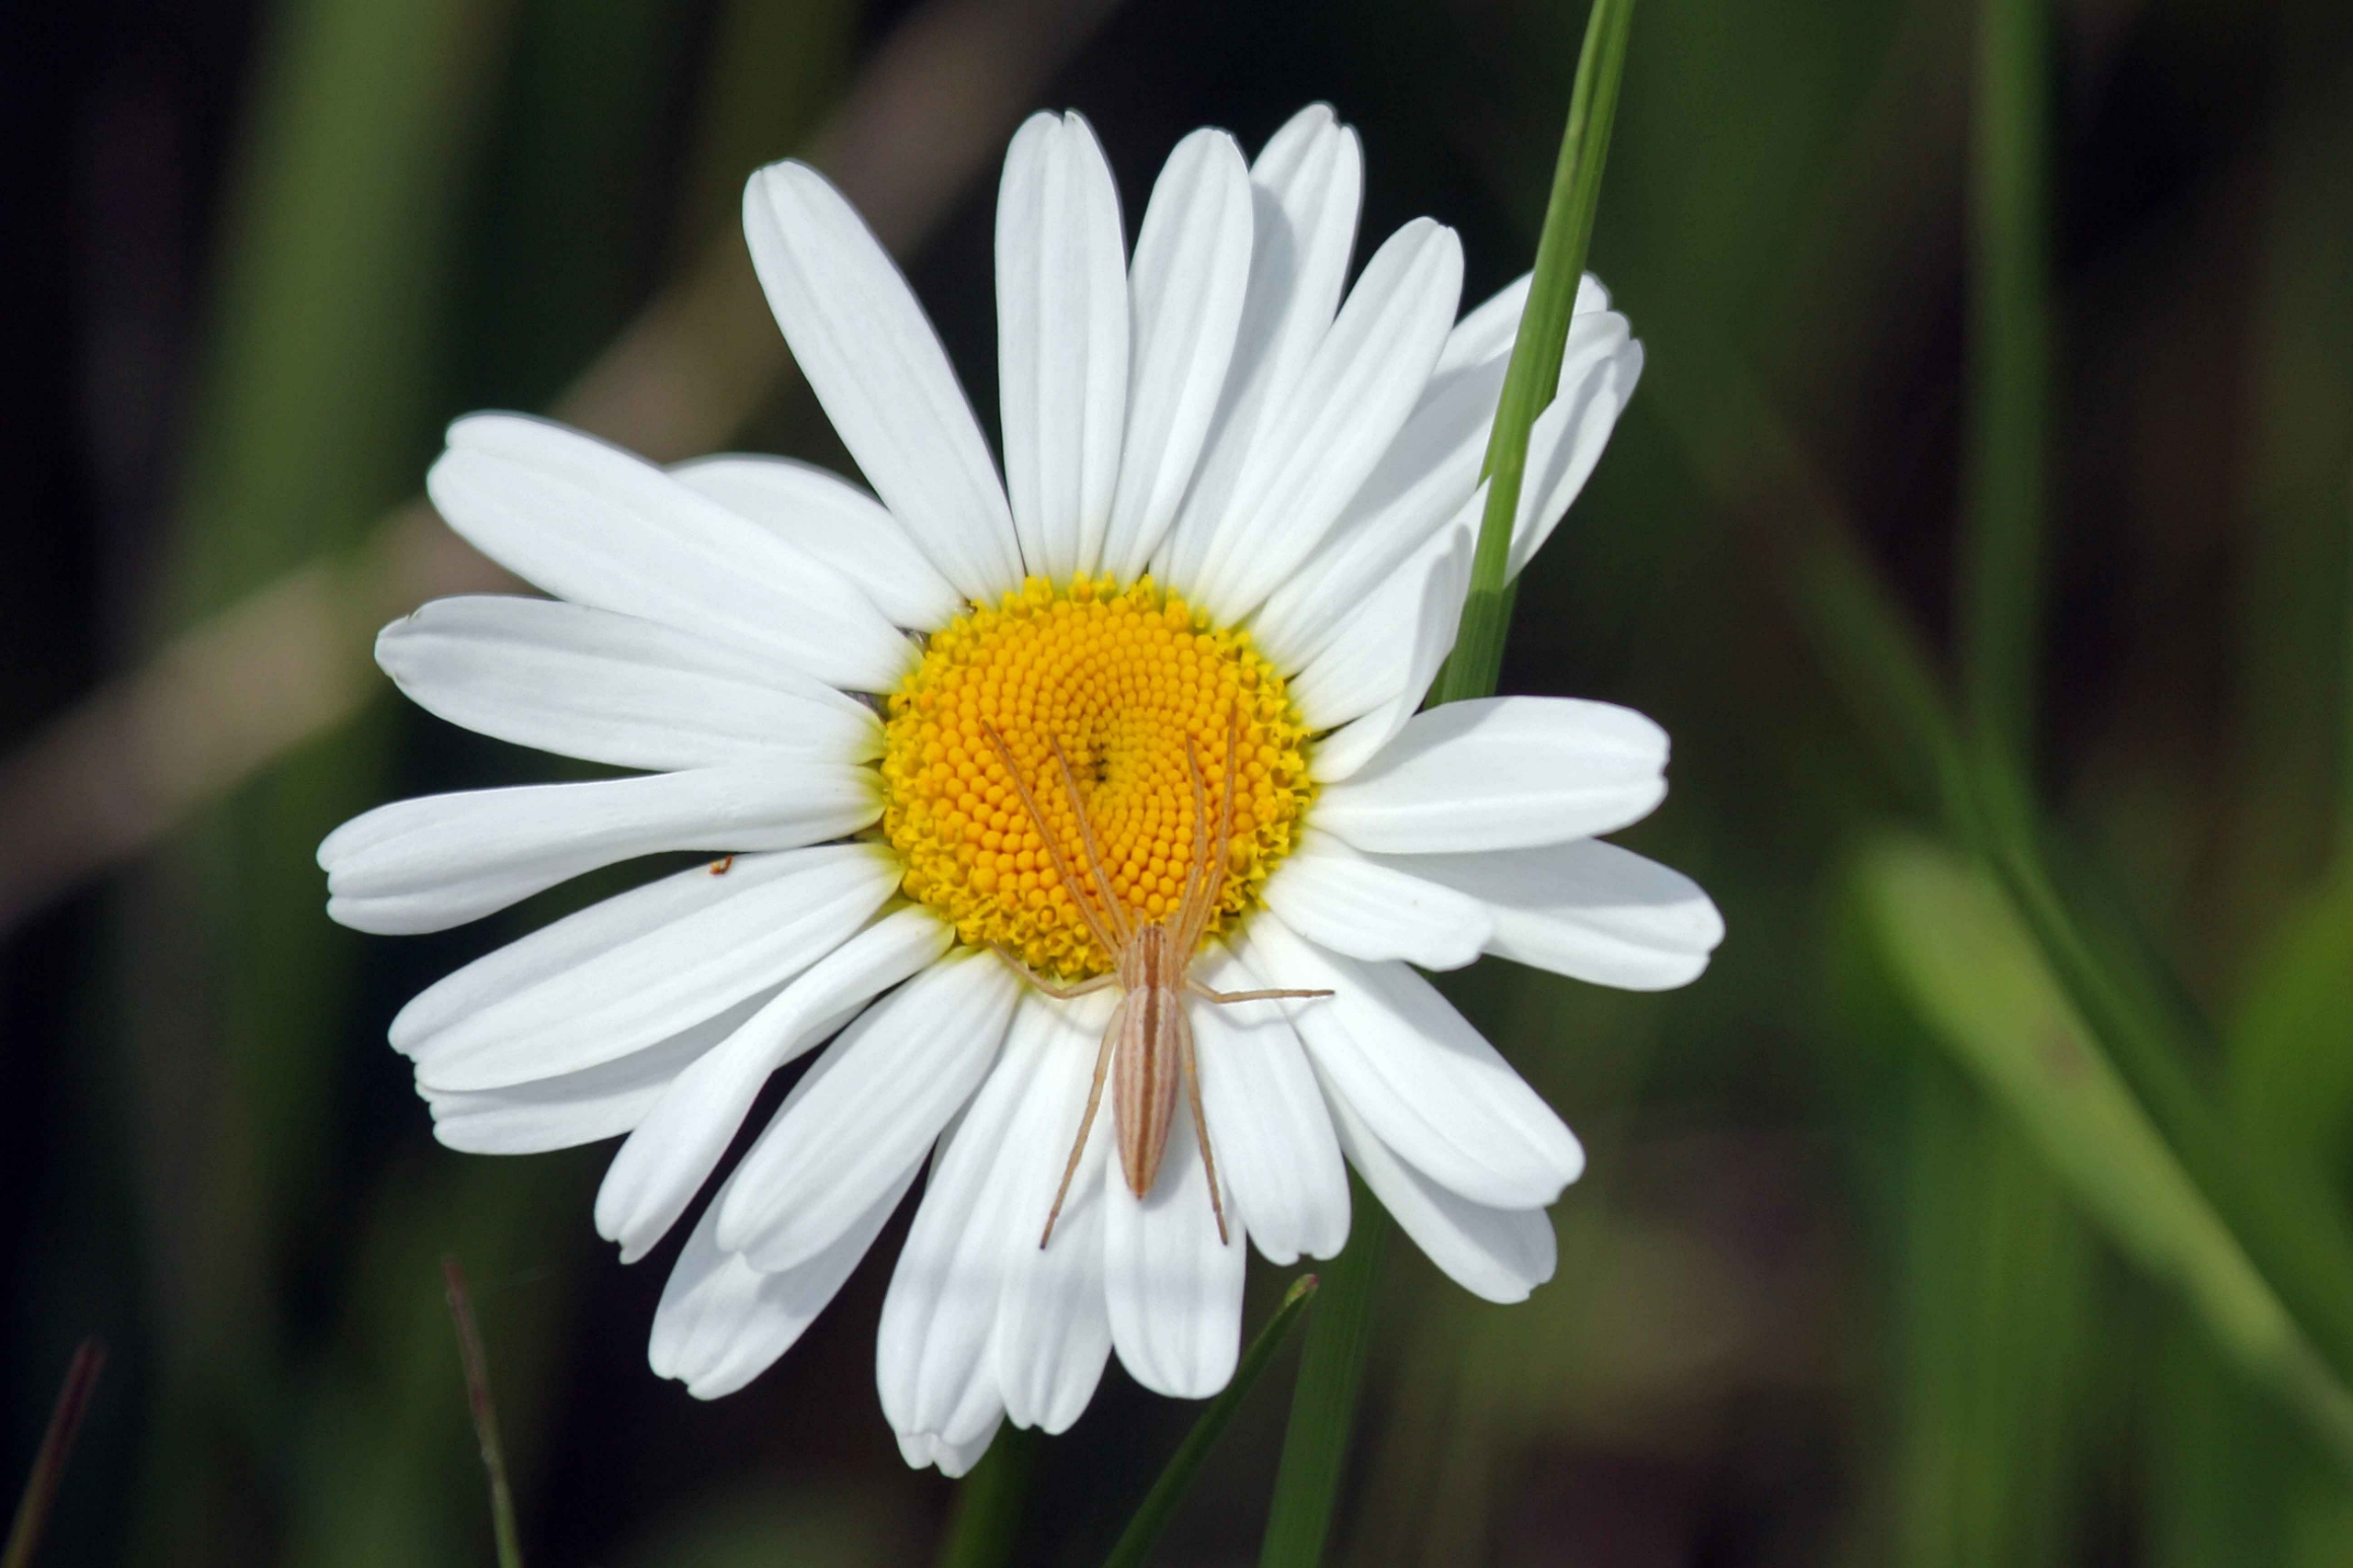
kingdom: Animalia
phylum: Arthropoda
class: Arachnida
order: Araneae
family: Philodromidae
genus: Tibellus
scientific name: Tibellus
